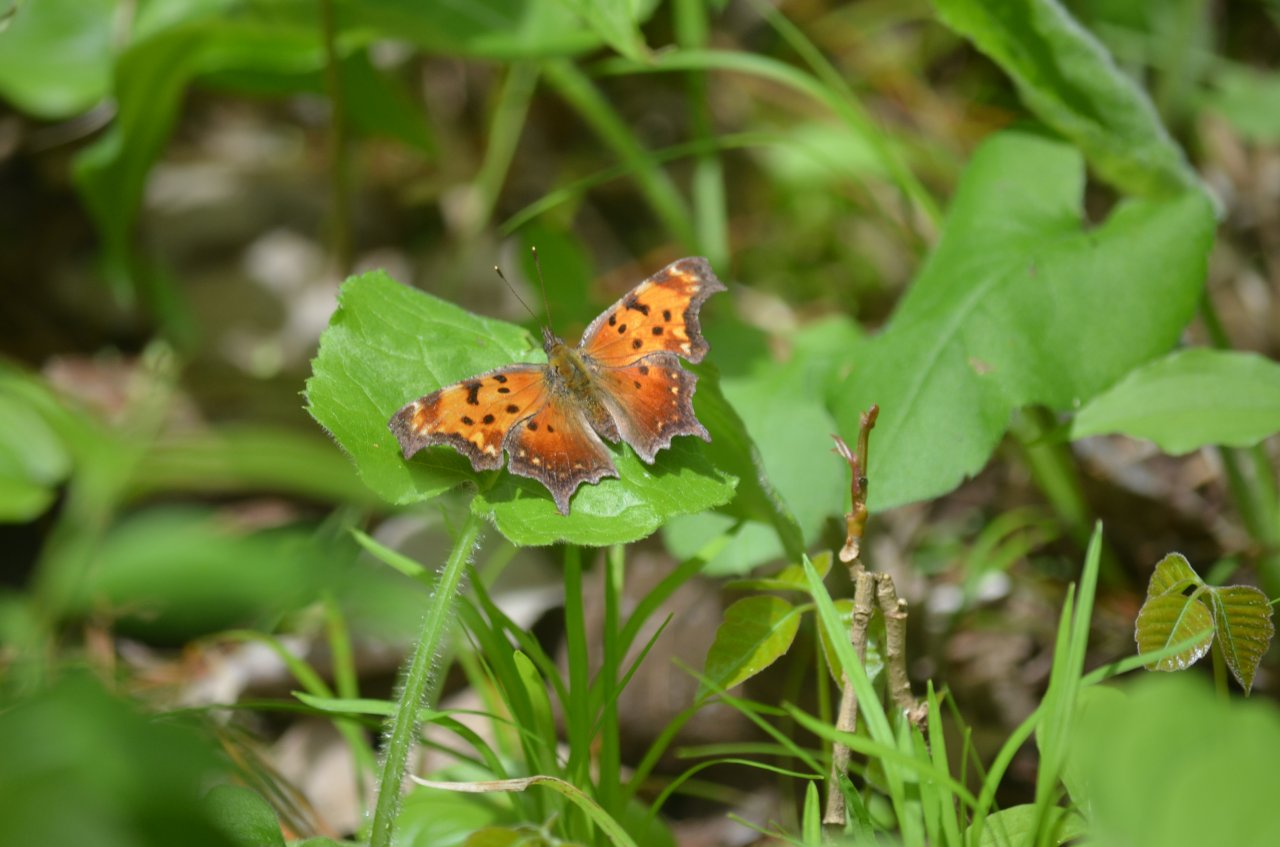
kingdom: Animalia
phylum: Arthropoda
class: Insecta
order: Lepidoptera
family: Nymphalidae
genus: Polygonia
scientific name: Polygonia progne
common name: Gray Comma
